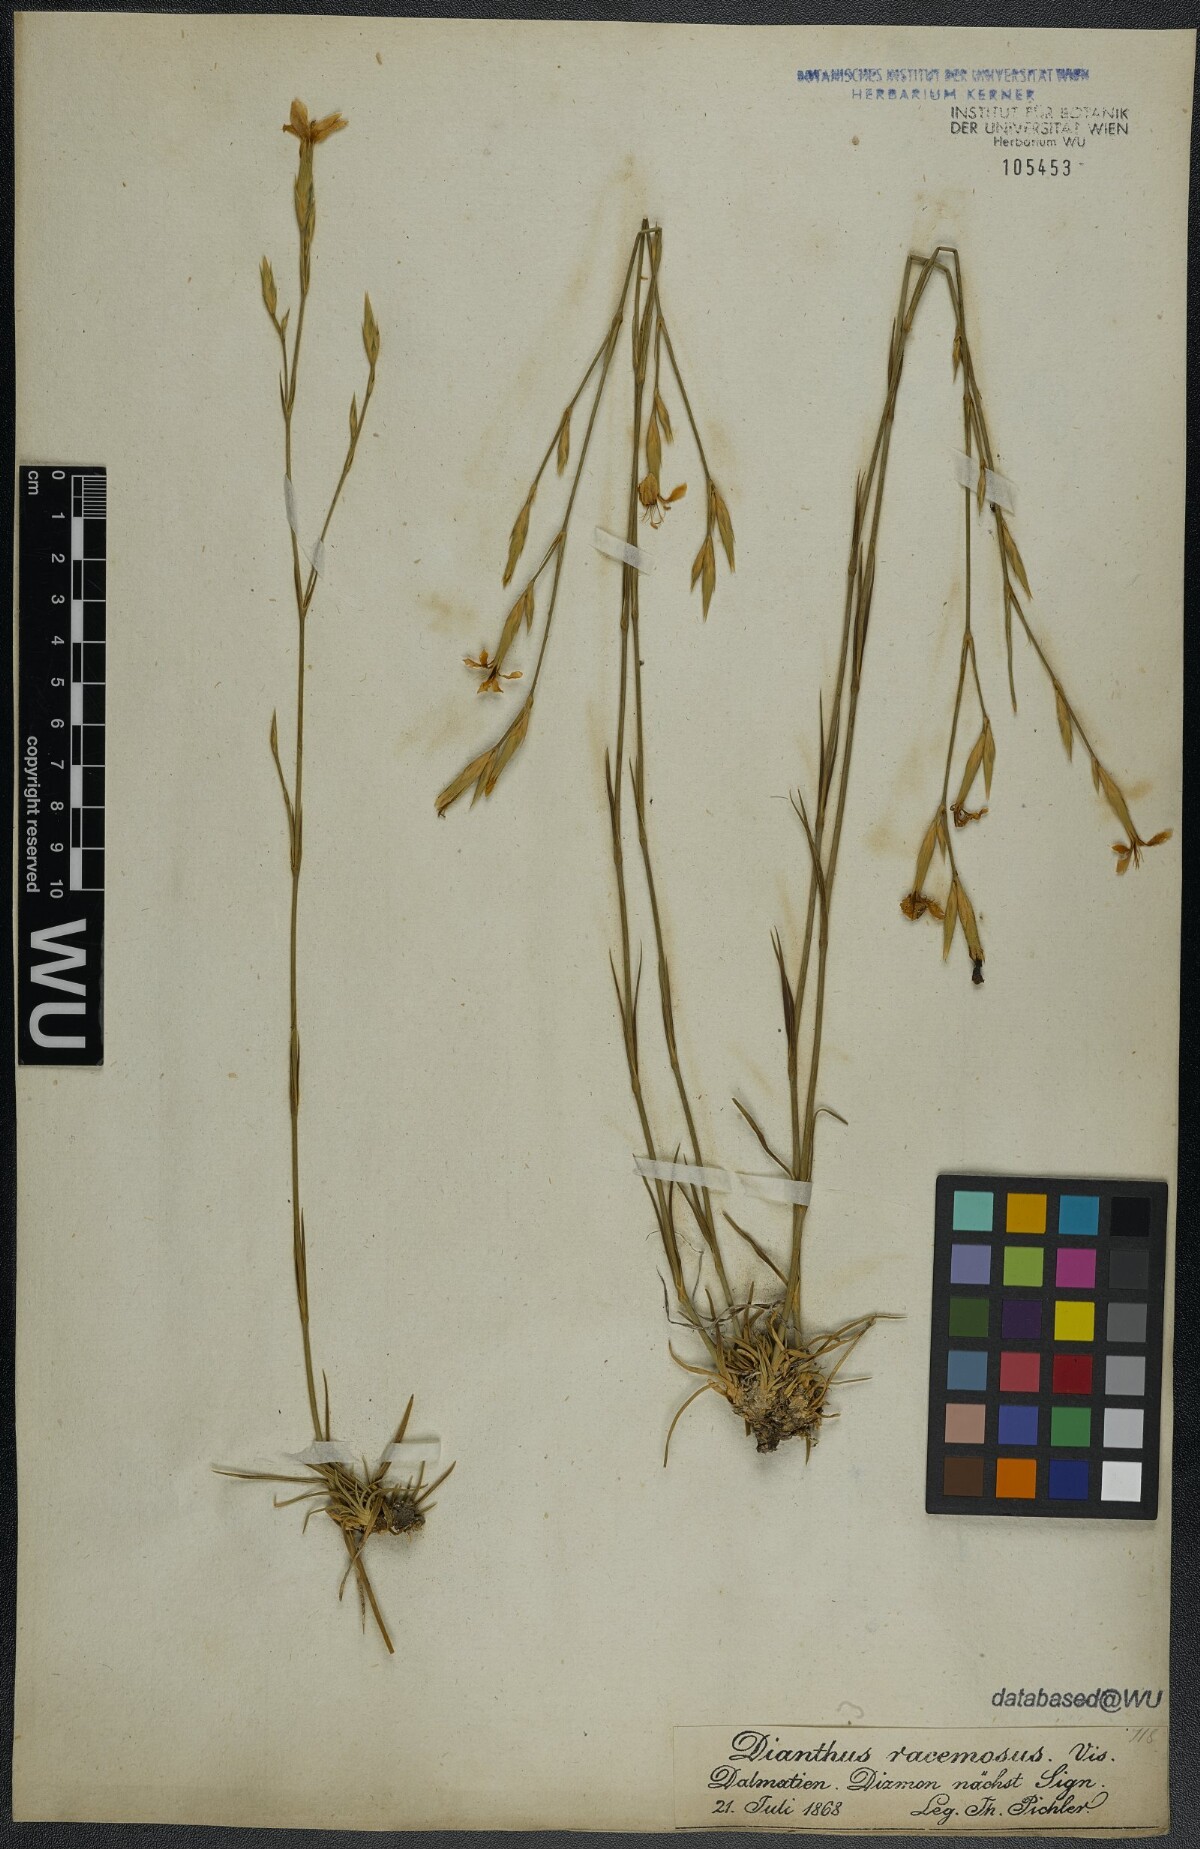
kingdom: Plantae
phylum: Tracheophyta
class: Magnoliopsida
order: Caryophyllales
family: Caryophyllaceae
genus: Dianthus
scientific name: Dianthus ciliatus
